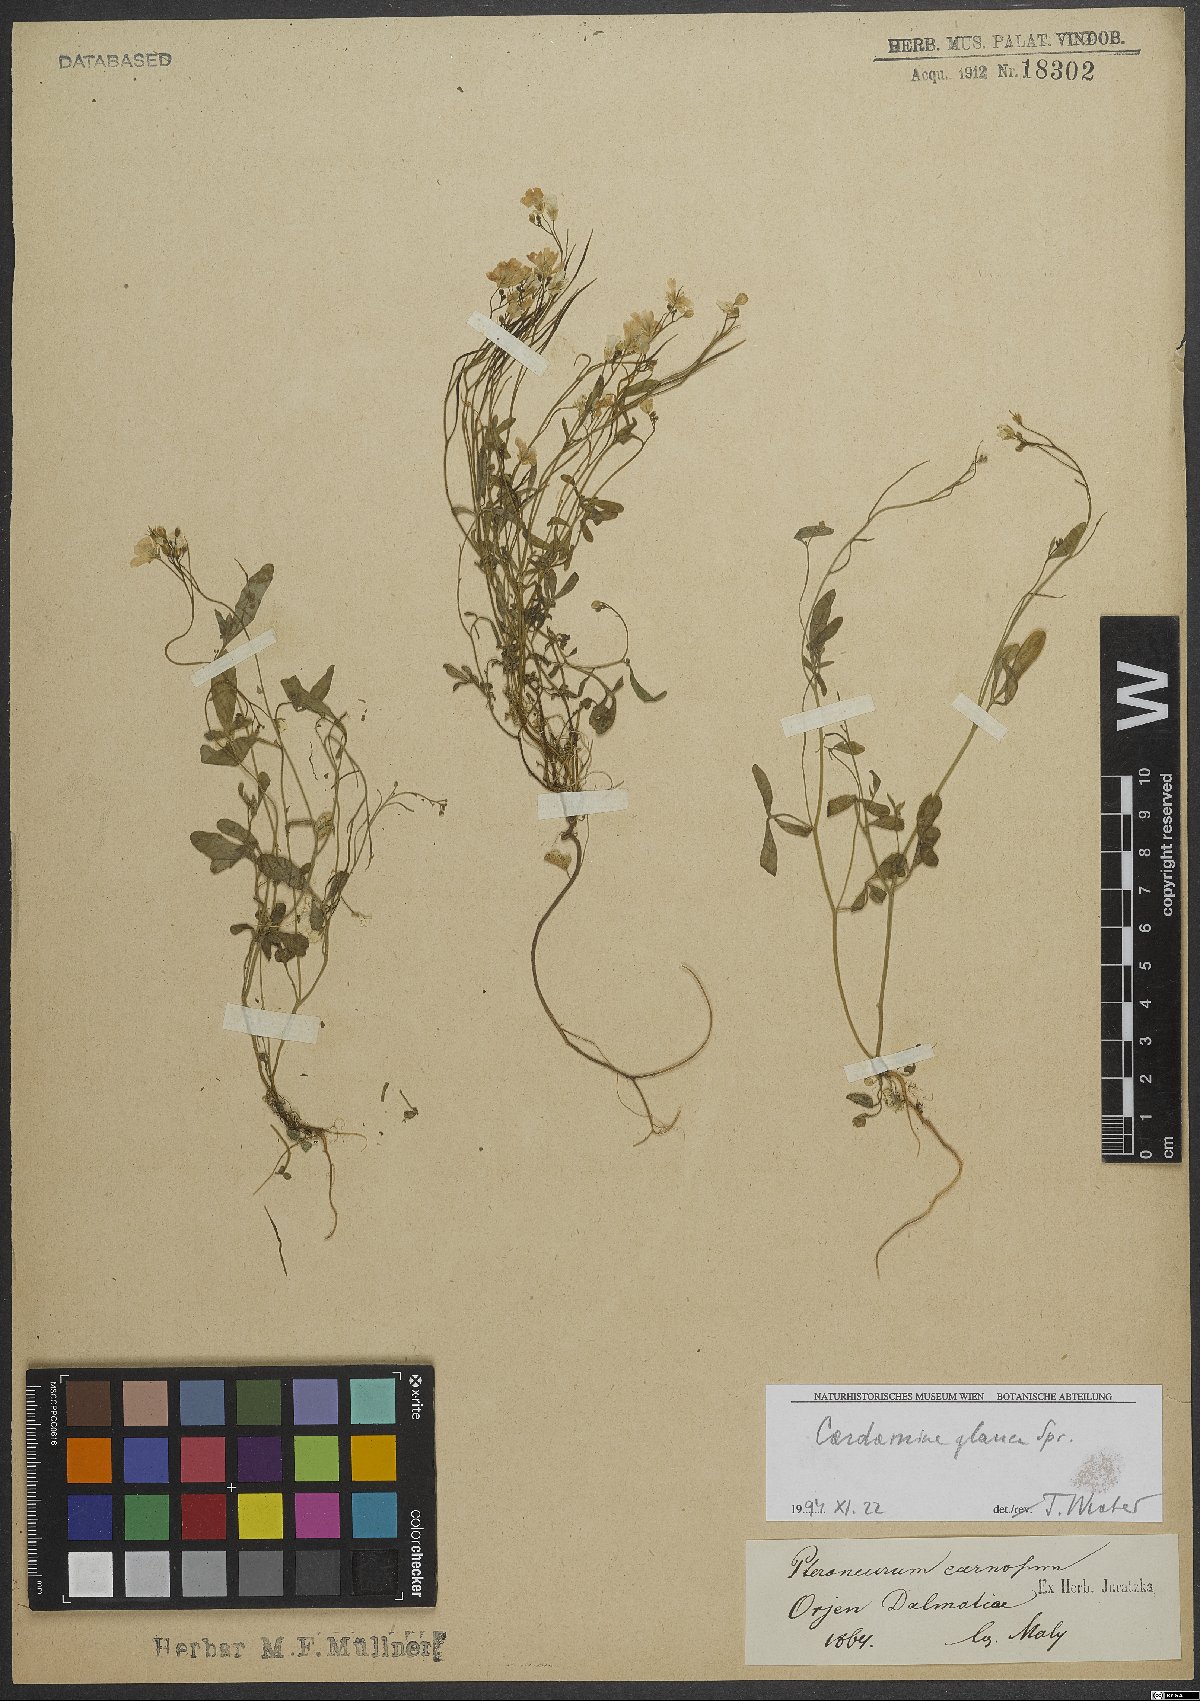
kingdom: Plantae
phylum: Tracheophyta
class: Magnoliopsida
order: Brassicales
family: Brassicaceae
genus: Cardamine
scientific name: Cardamine glauca
